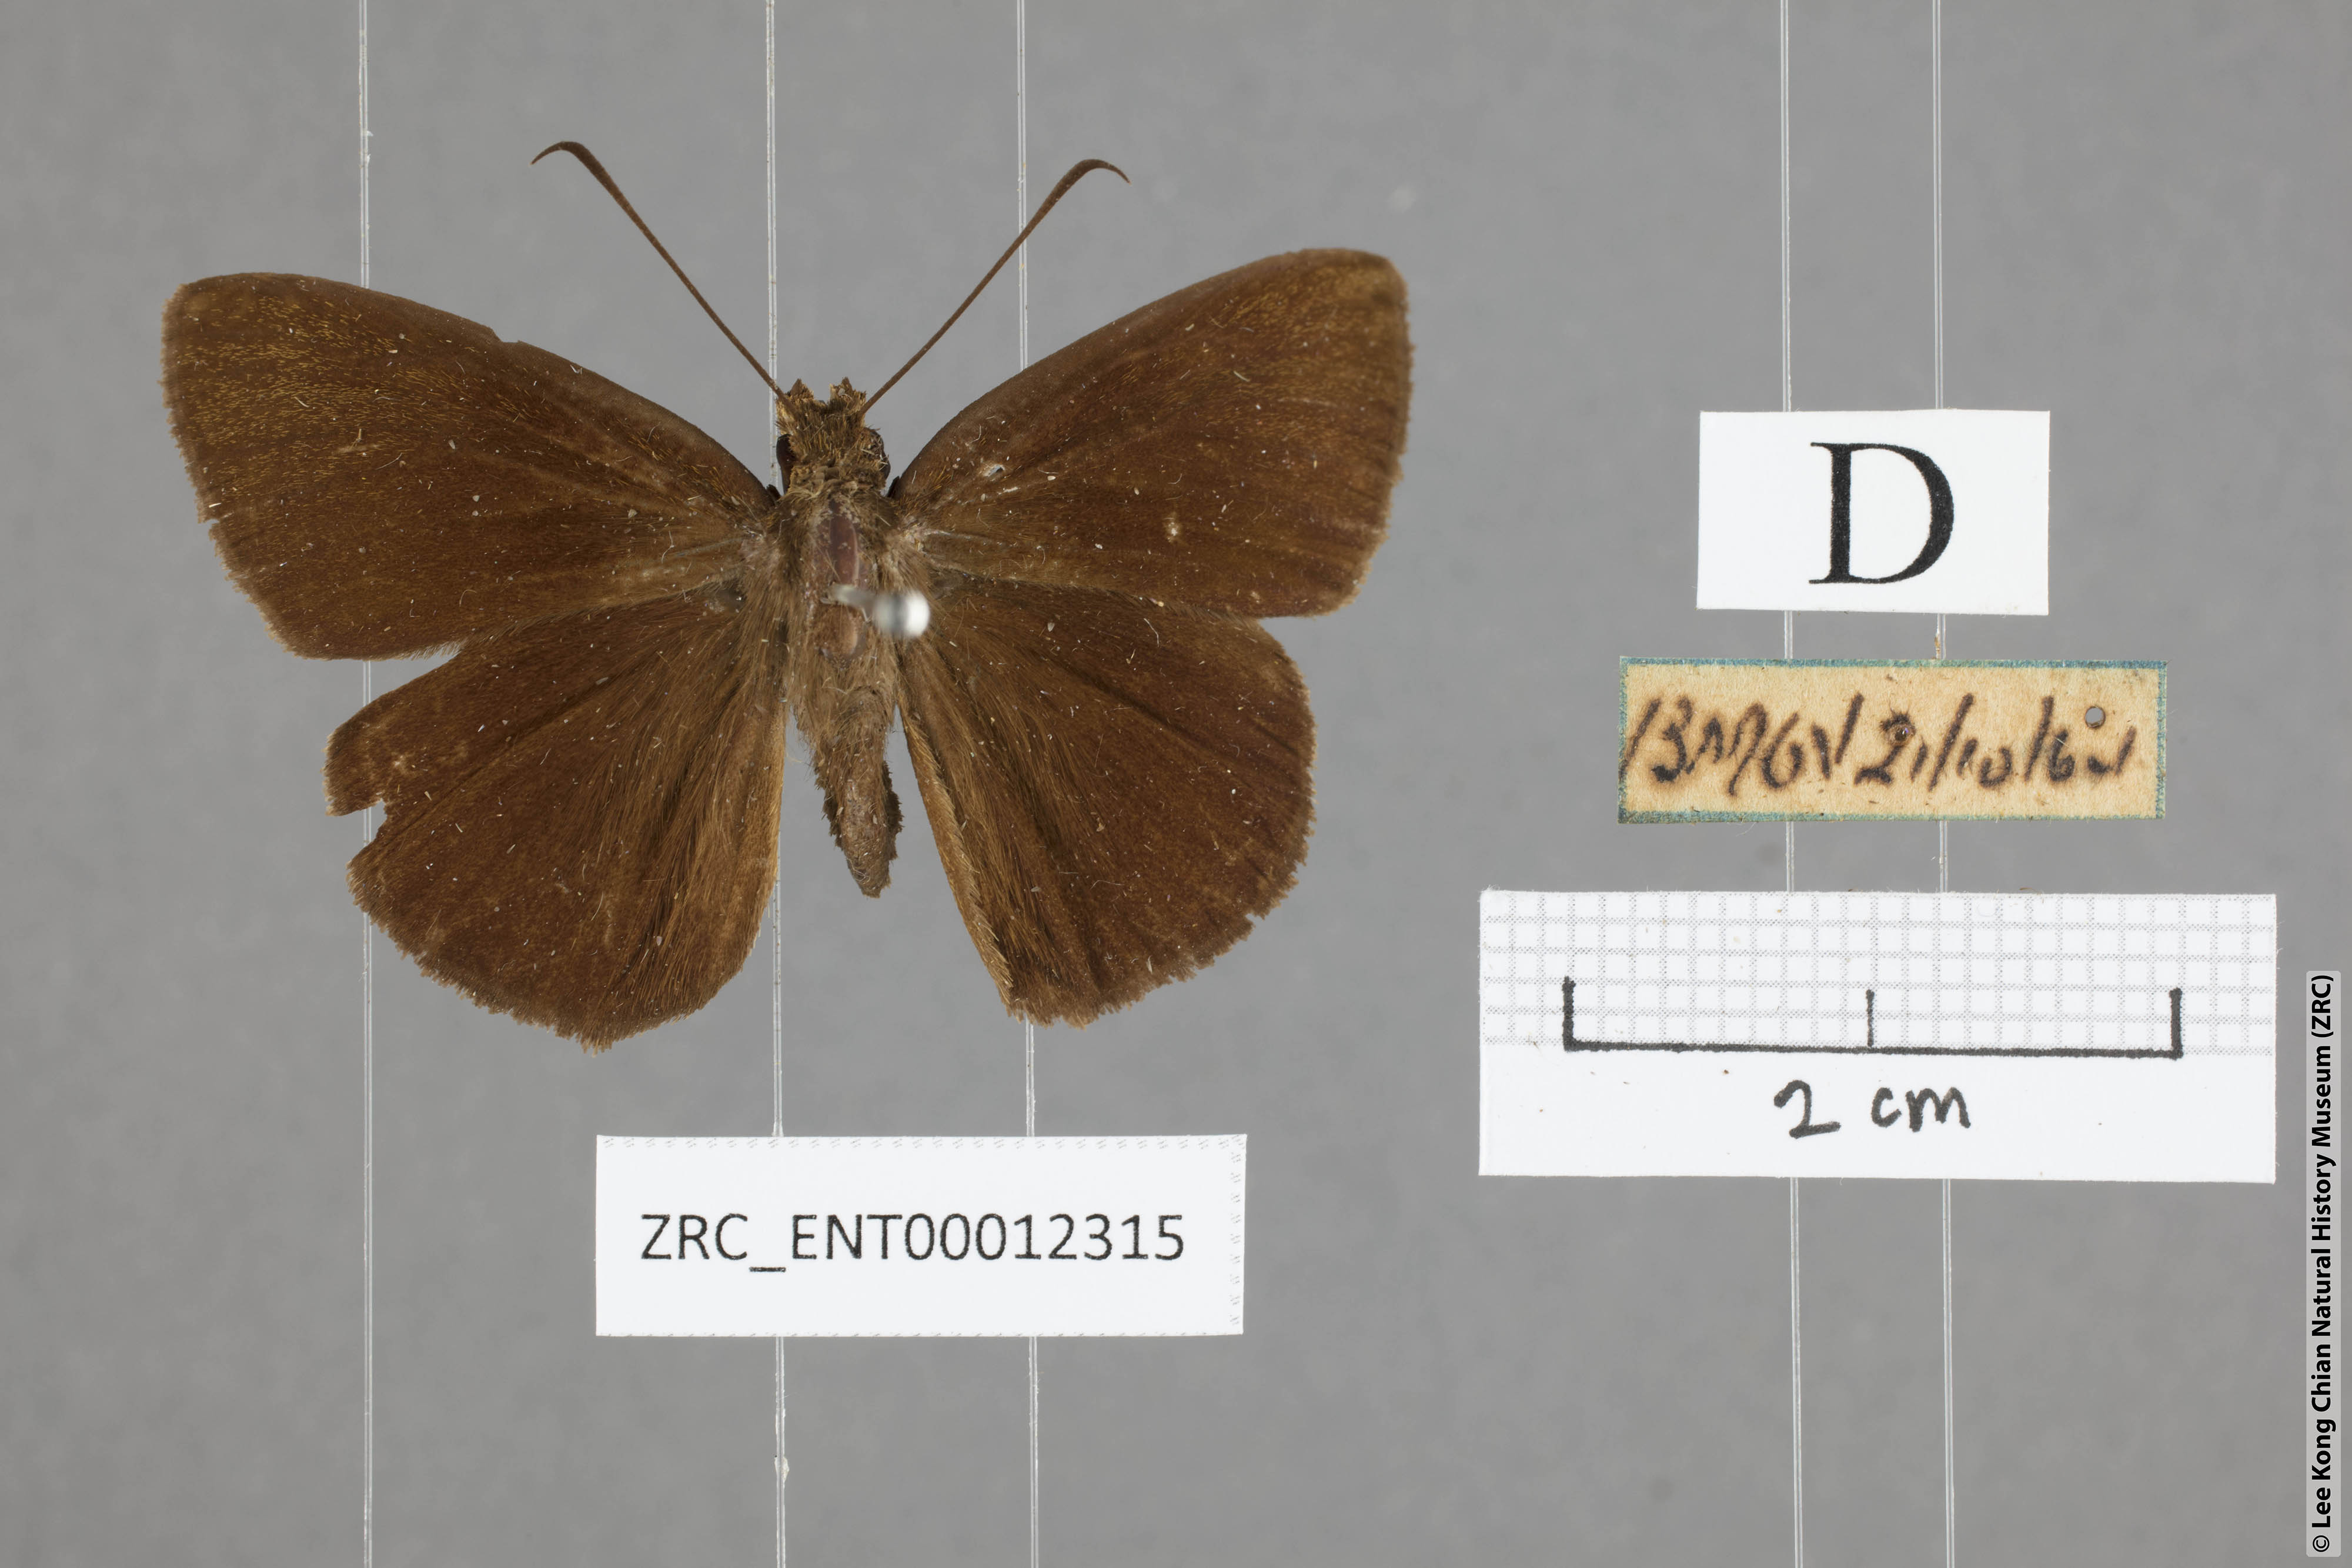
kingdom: Animalia
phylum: Arthropoda
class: Insecta
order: Lepidoptera
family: Hesperiidae
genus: Ancistroides
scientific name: Ancistroides nigrita
